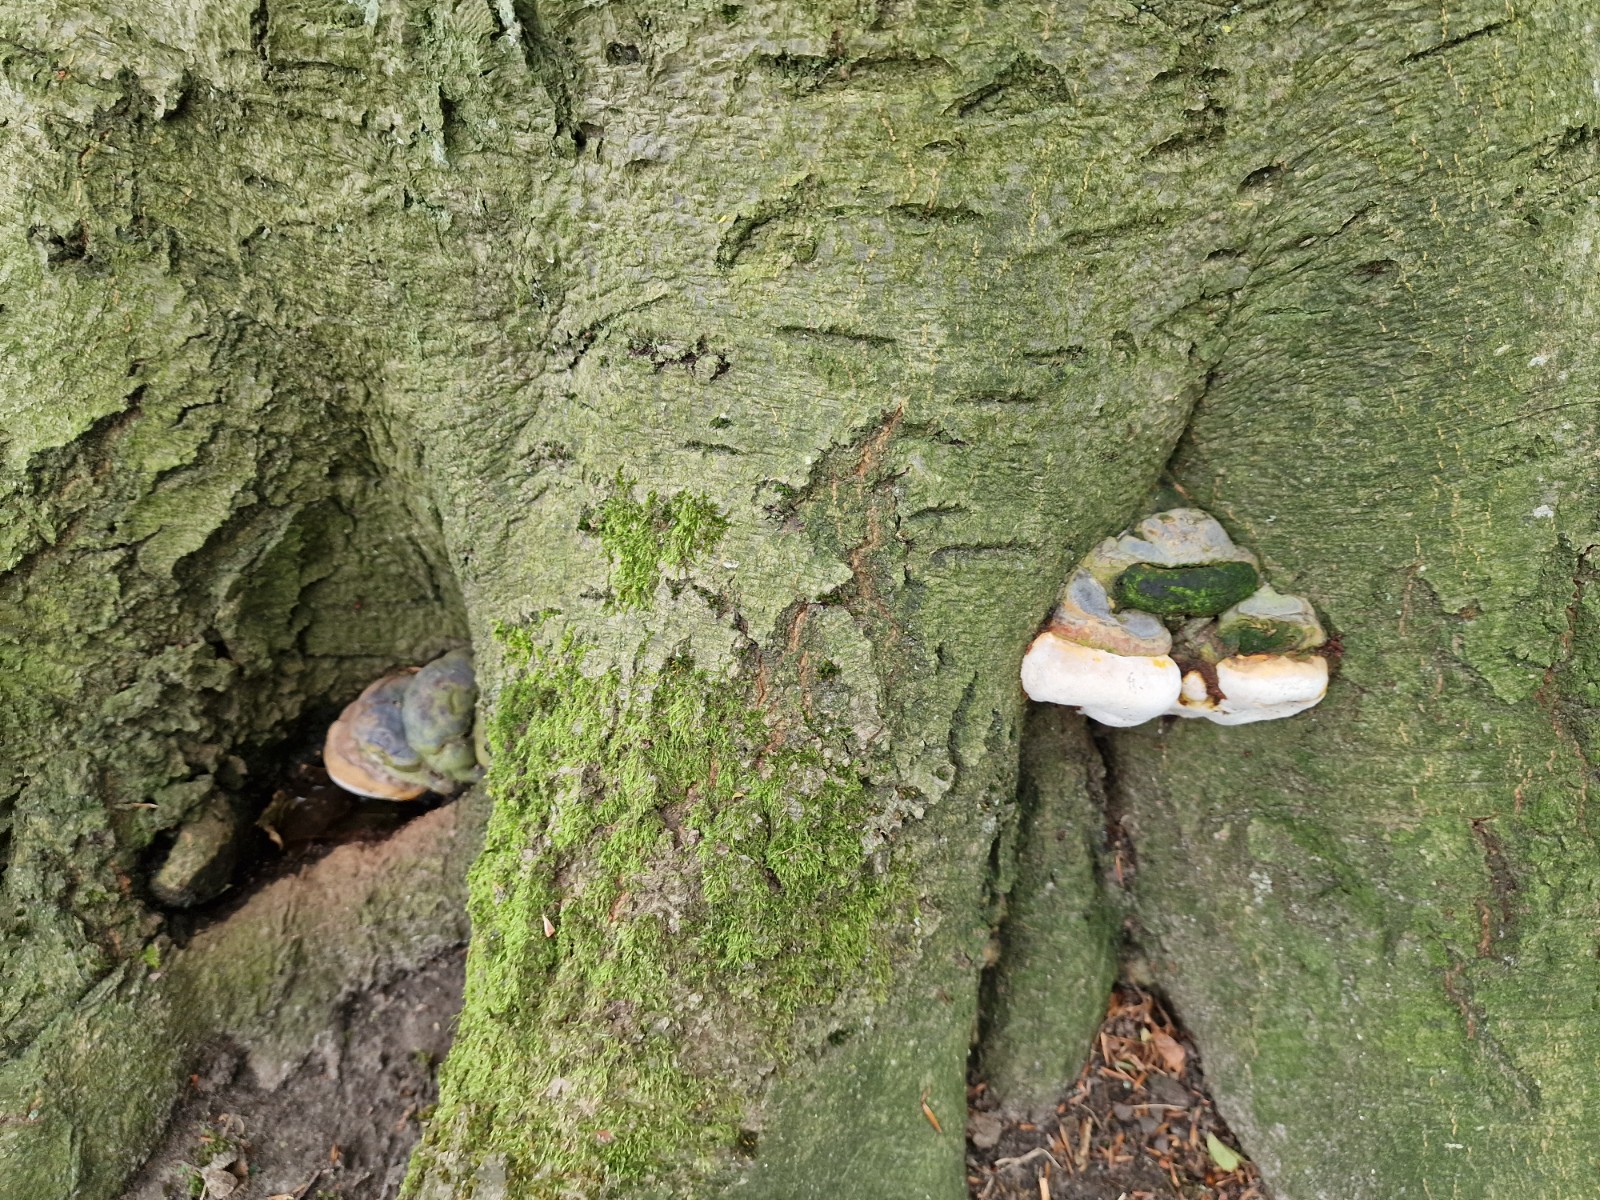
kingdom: Fungi
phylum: Basidiomycota
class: Agaricomycetes
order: Polyporales
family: Polyporaceae
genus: Ganoderma
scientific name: Ganoderma pfeifferi
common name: kobberrød lakporesvamp
